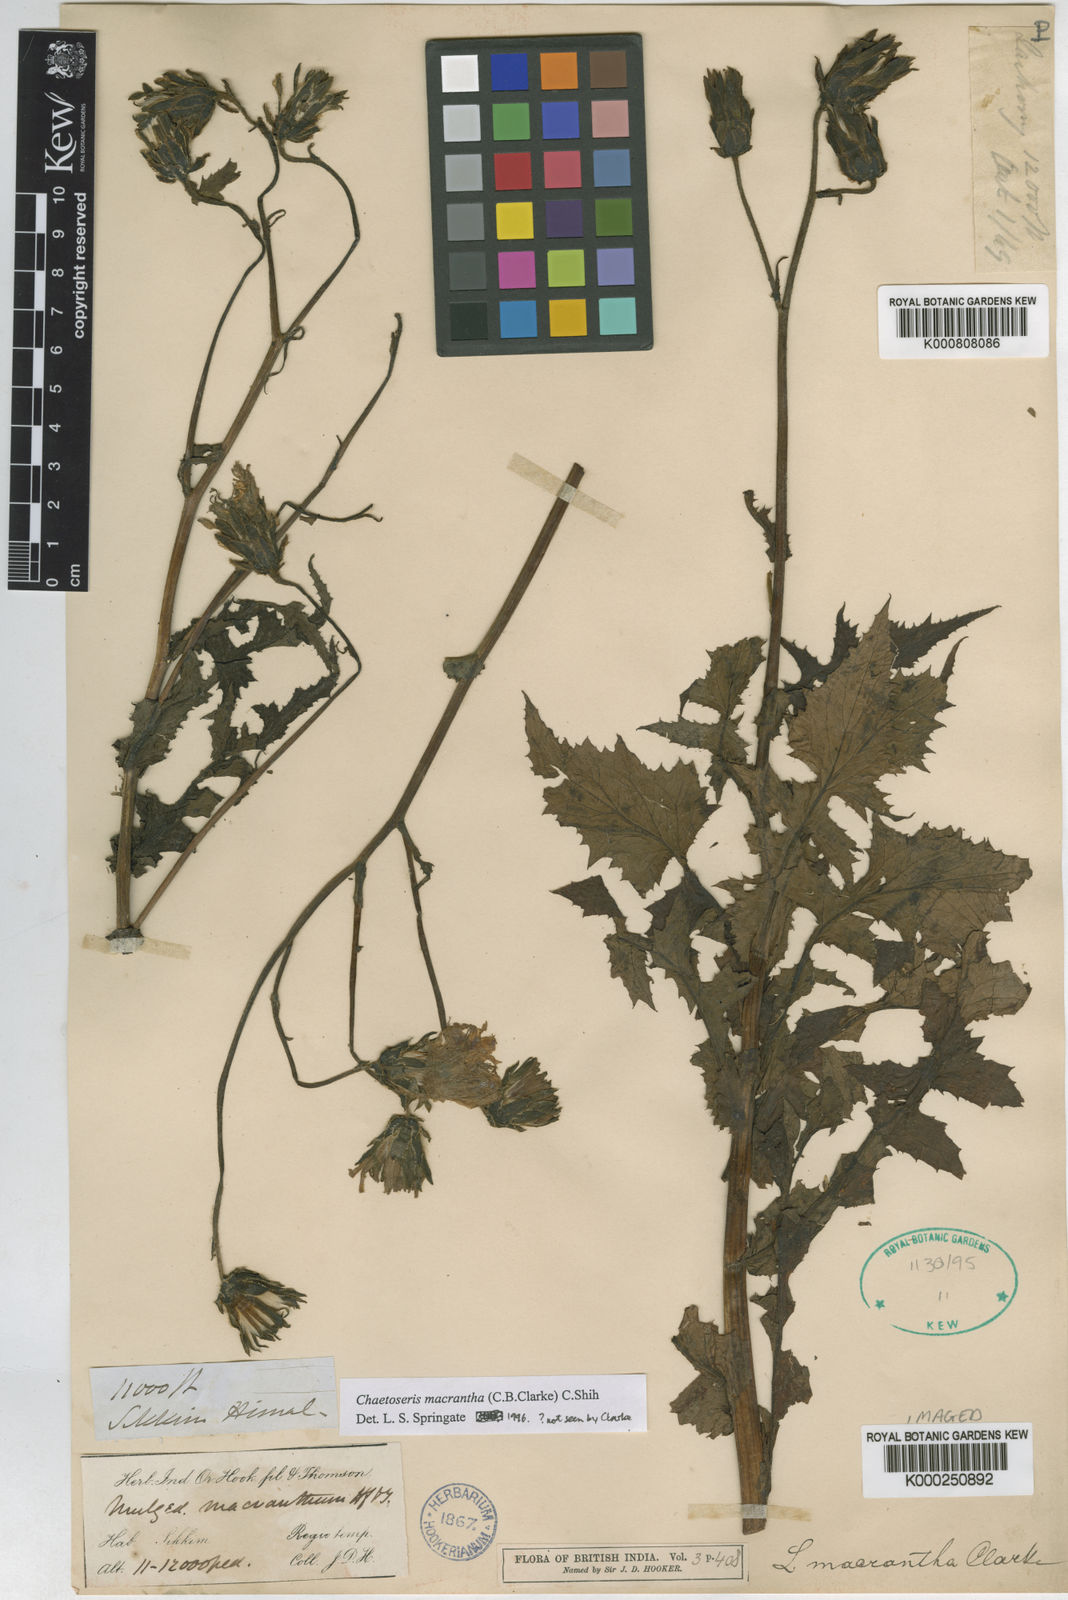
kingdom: Plantae
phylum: Tracheophyta
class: Magnoliopsida
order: Asterales
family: Asteraceae
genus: Melanoseris
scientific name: Melanoseris macrantha
